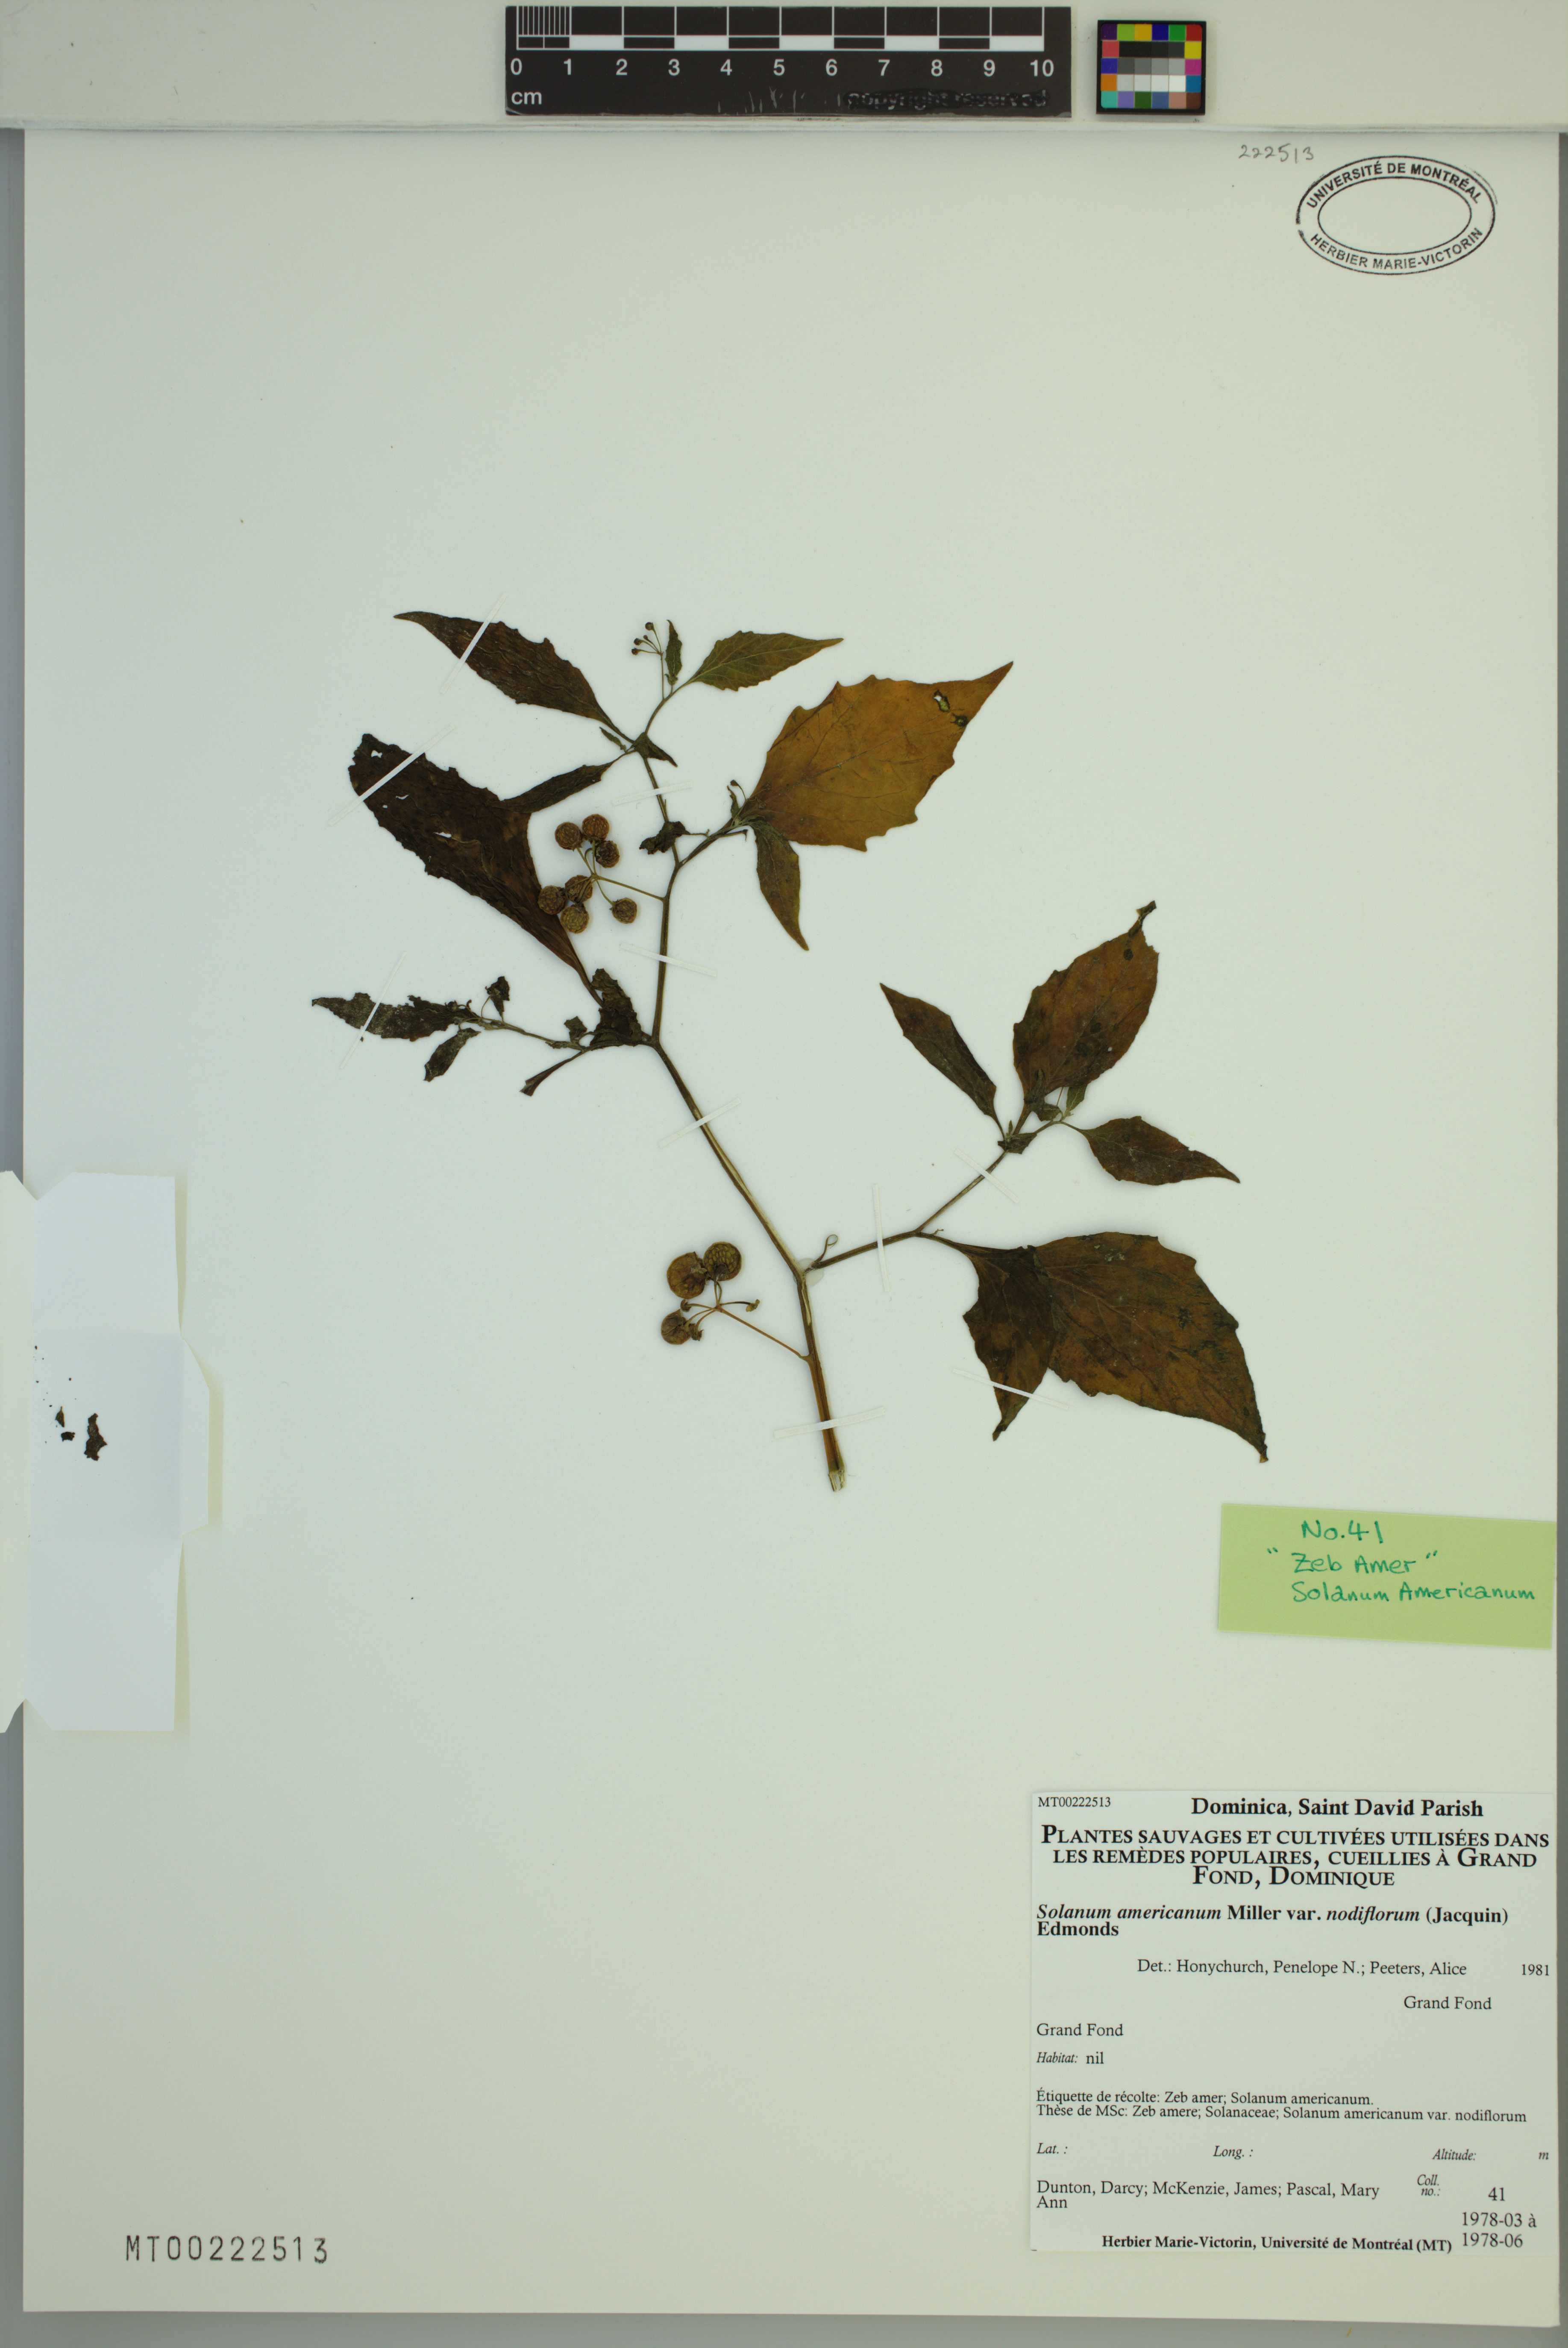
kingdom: Plantae
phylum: Tracheophyta
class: Magnoliopsida
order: Solanales
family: Solanaceae
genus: Solanum
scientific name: Solanum americanum
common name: American black nightshade
